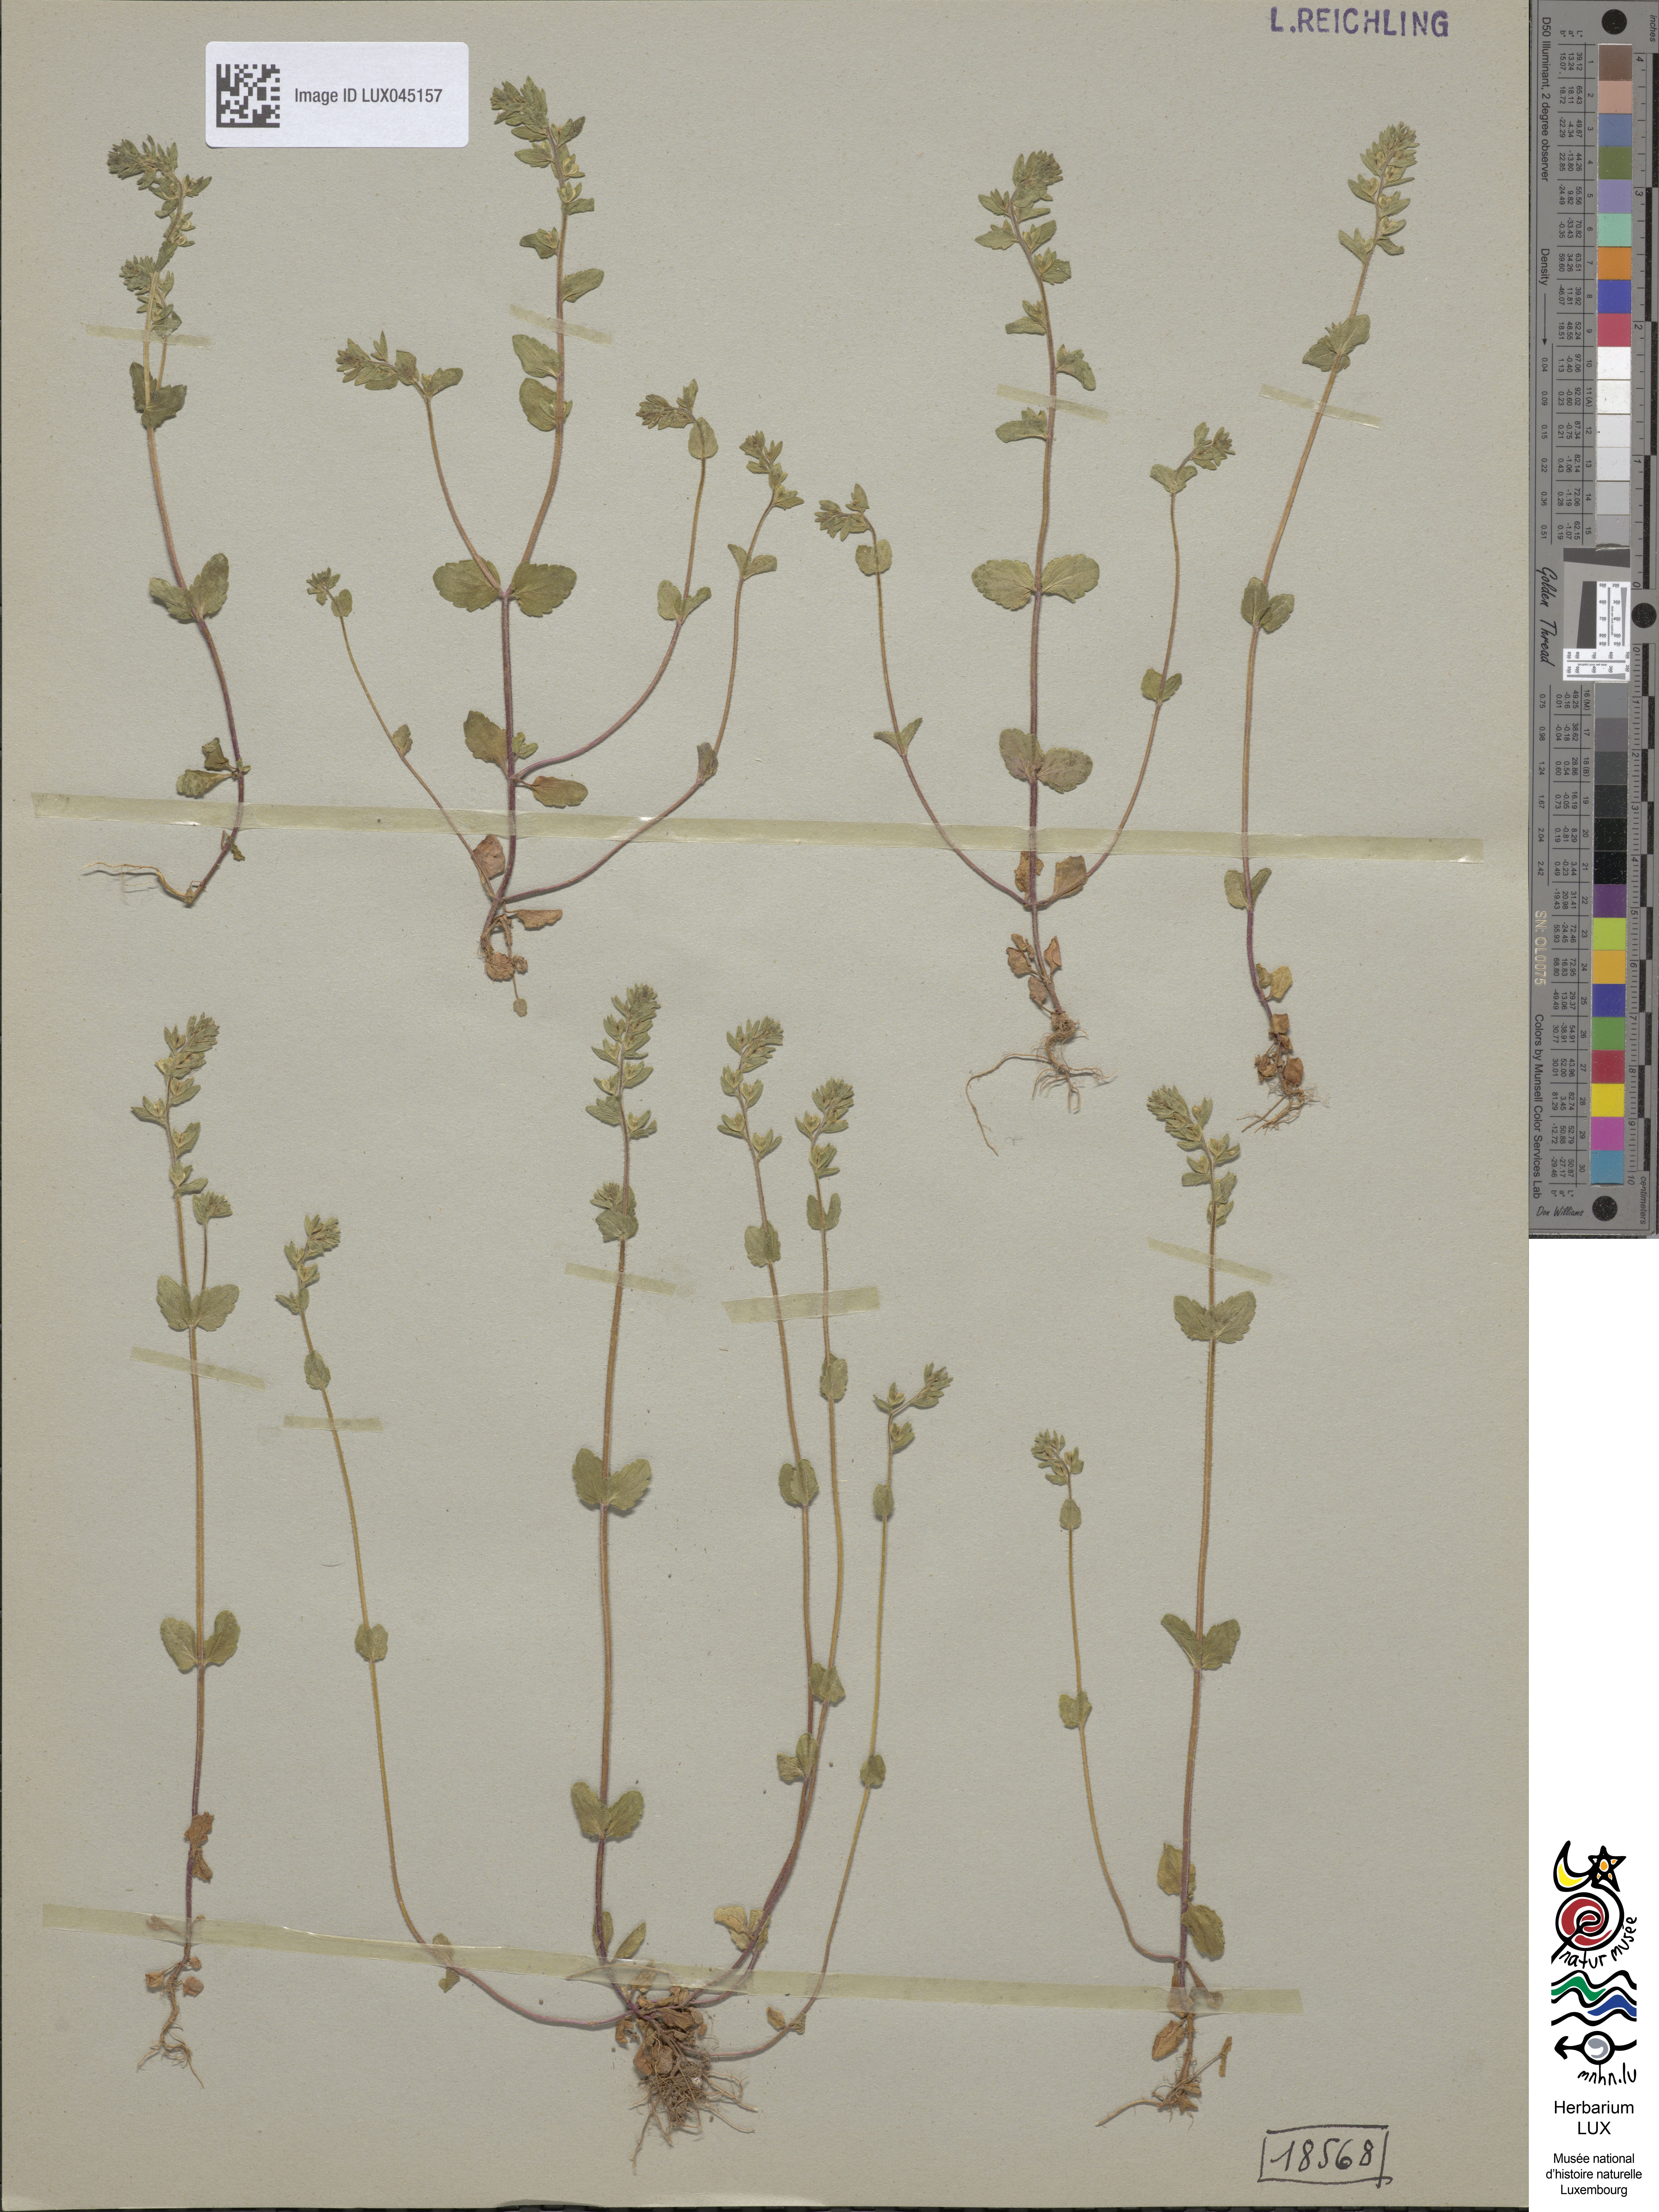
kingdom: Plantae
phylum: Tracheophyta
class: Magnoliopsida
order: Lamiales
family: Plantaginaceae
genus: Veronica
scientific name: Veronica arvensis
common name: Corn speedwell
